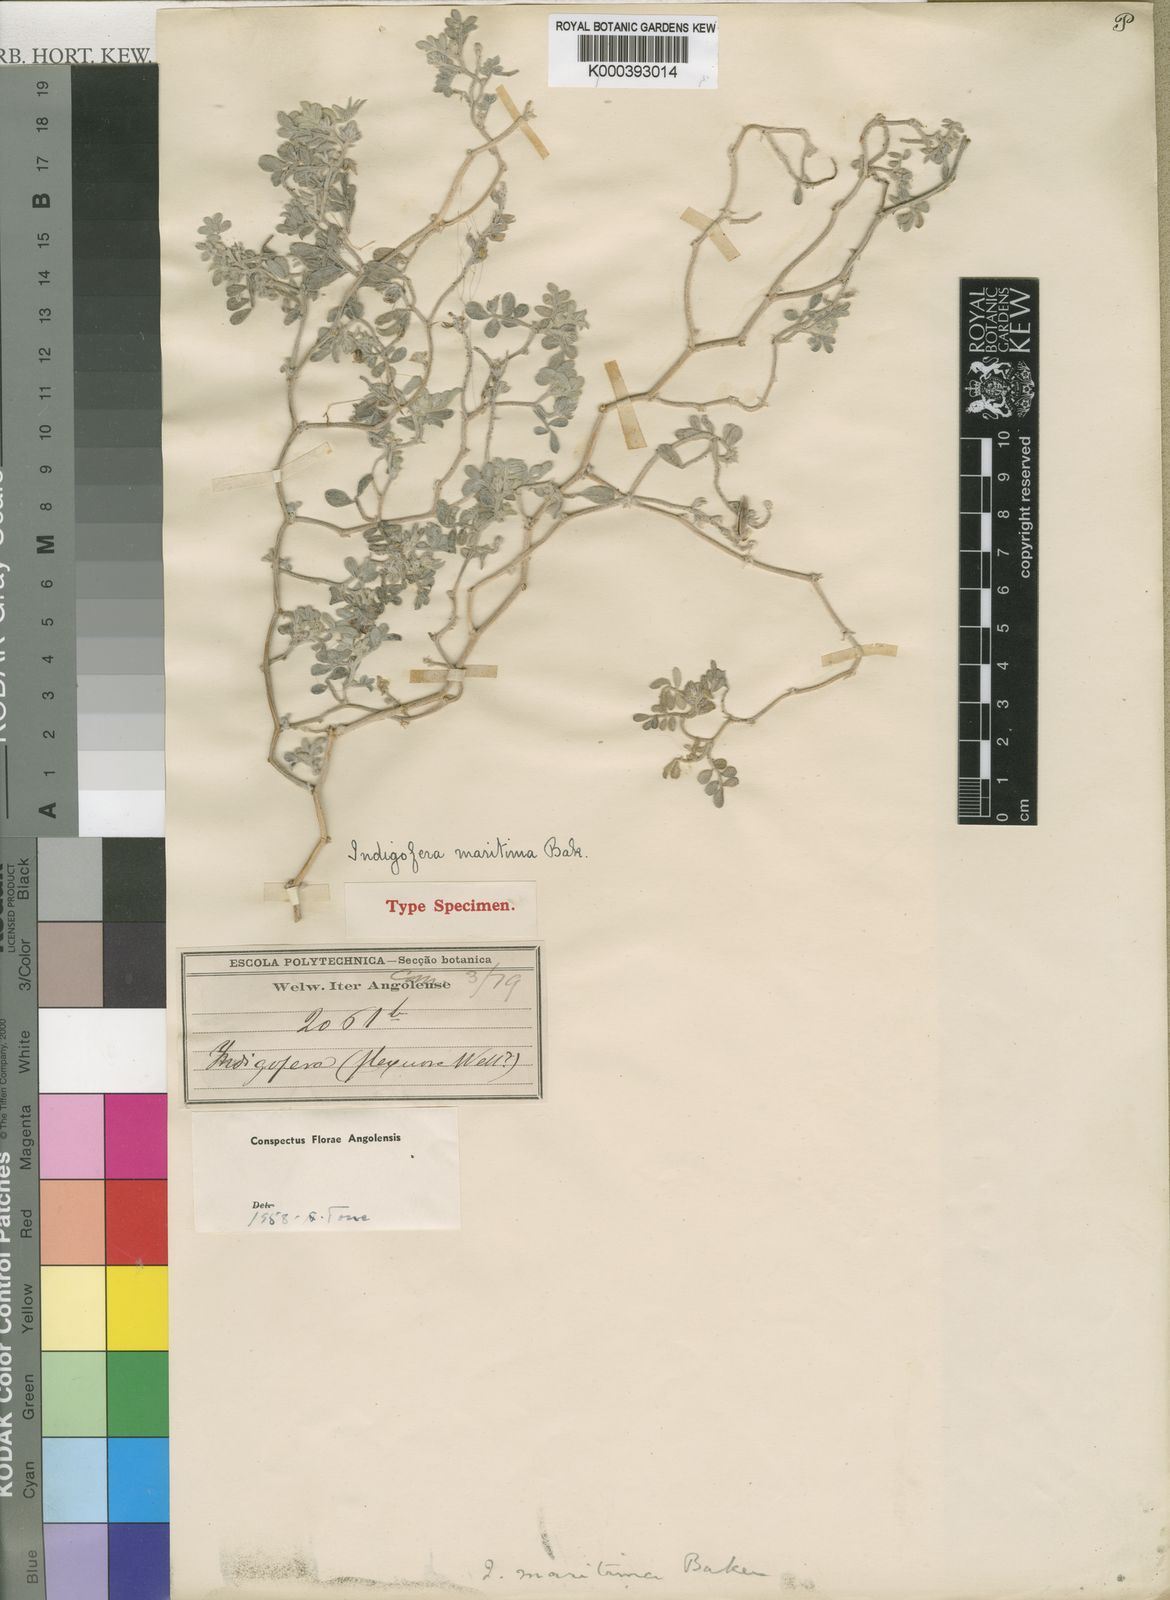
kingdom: Plantae
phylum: Tracheophyta
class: Magnoliopsida
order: Fabales
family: Fabaceae
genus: Indigofera
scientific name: Indigofera maritima
